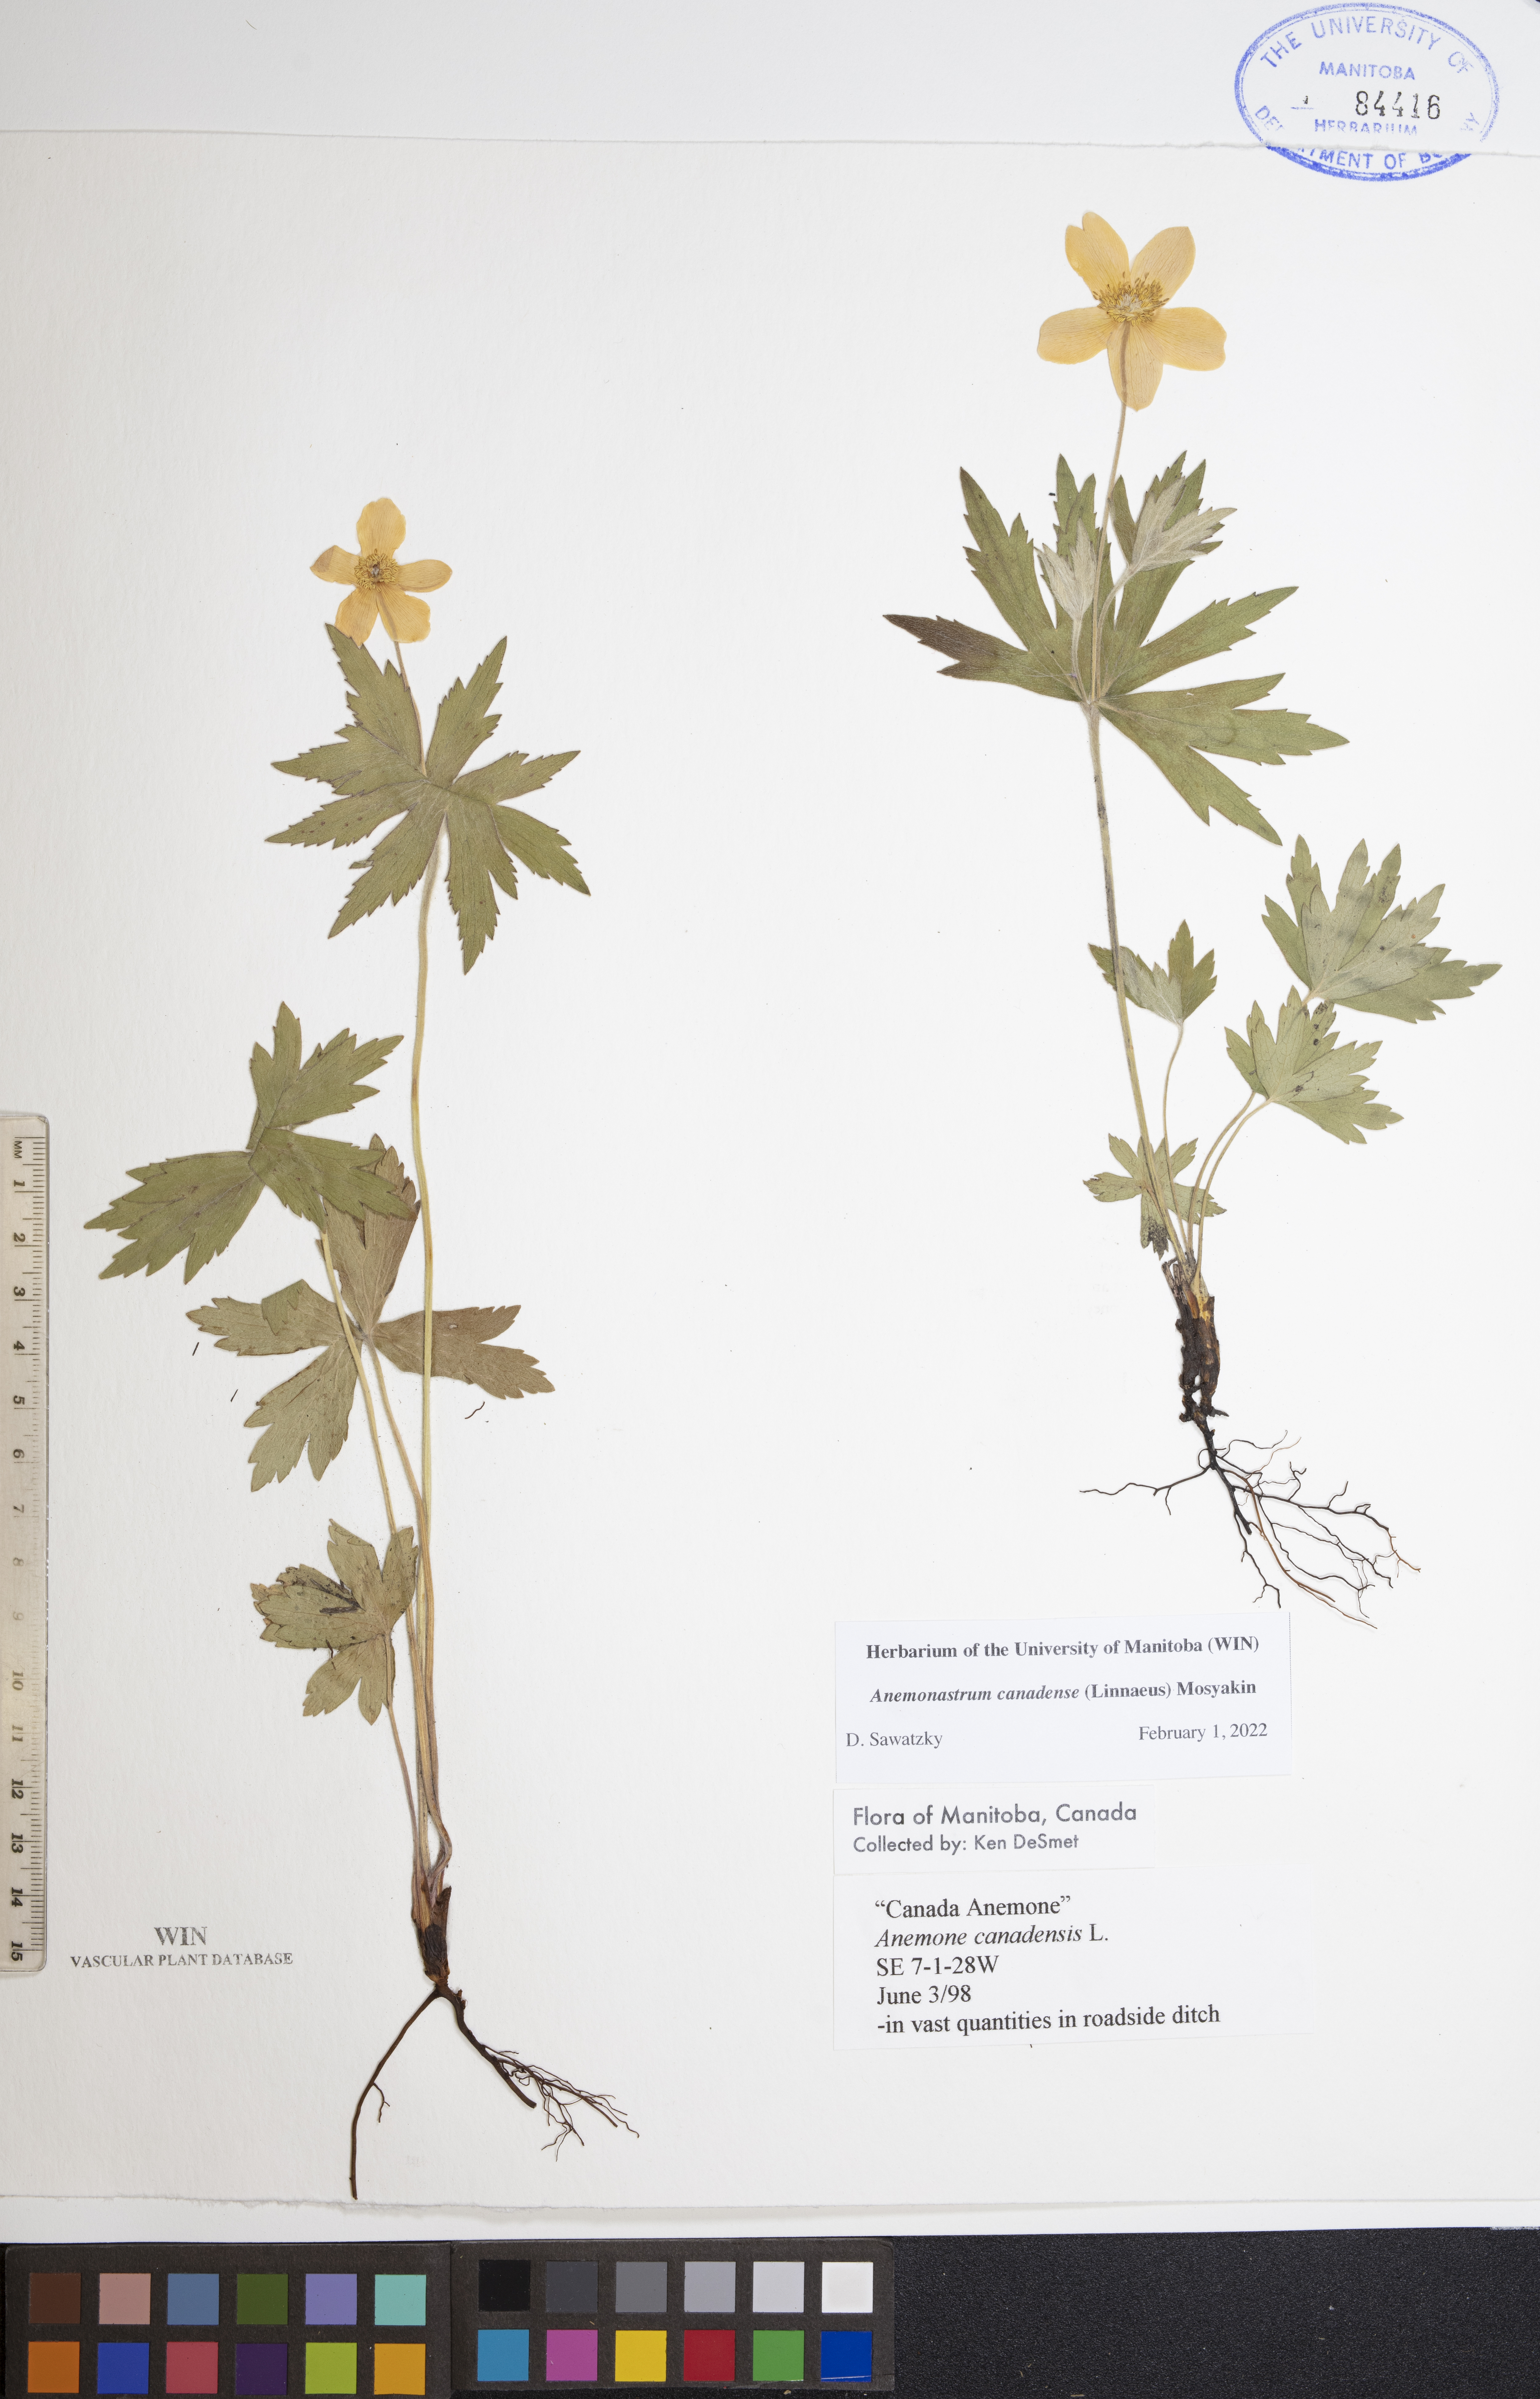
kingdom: Plantae
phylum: Tracheophyta
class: Magnoliopsida
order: Ranunculales
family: Ranunculaceae
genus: Anemonastrum
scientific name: Anemonastrum canadense
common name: Canada anemone
